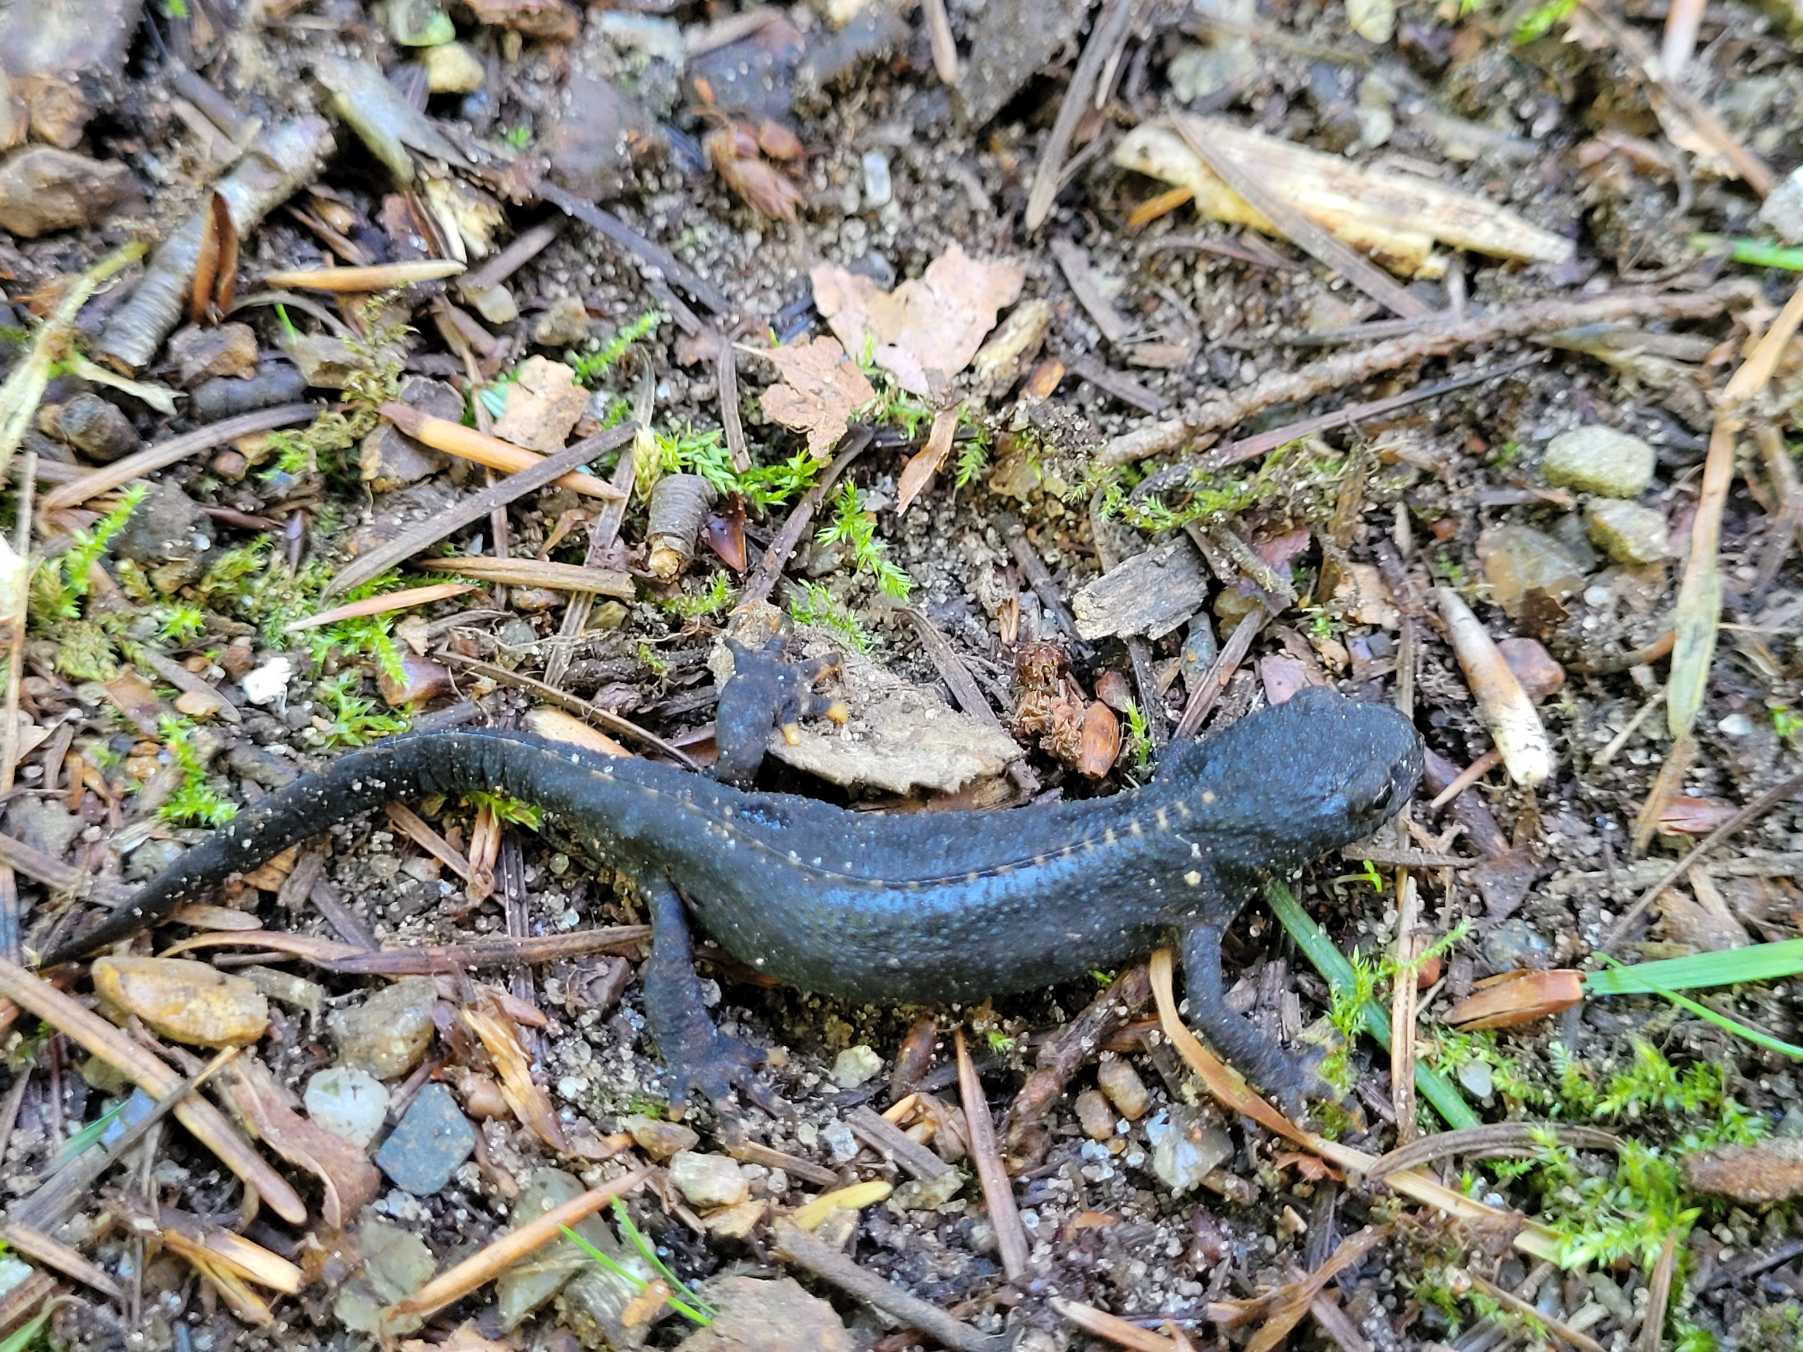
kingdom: Animalia
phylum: Chordata
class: Amphibia
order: Caudata
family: Salamandridae
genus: Ichthyosaura
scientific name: Ichthyosaura alpestris
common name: Bjergsalamander
